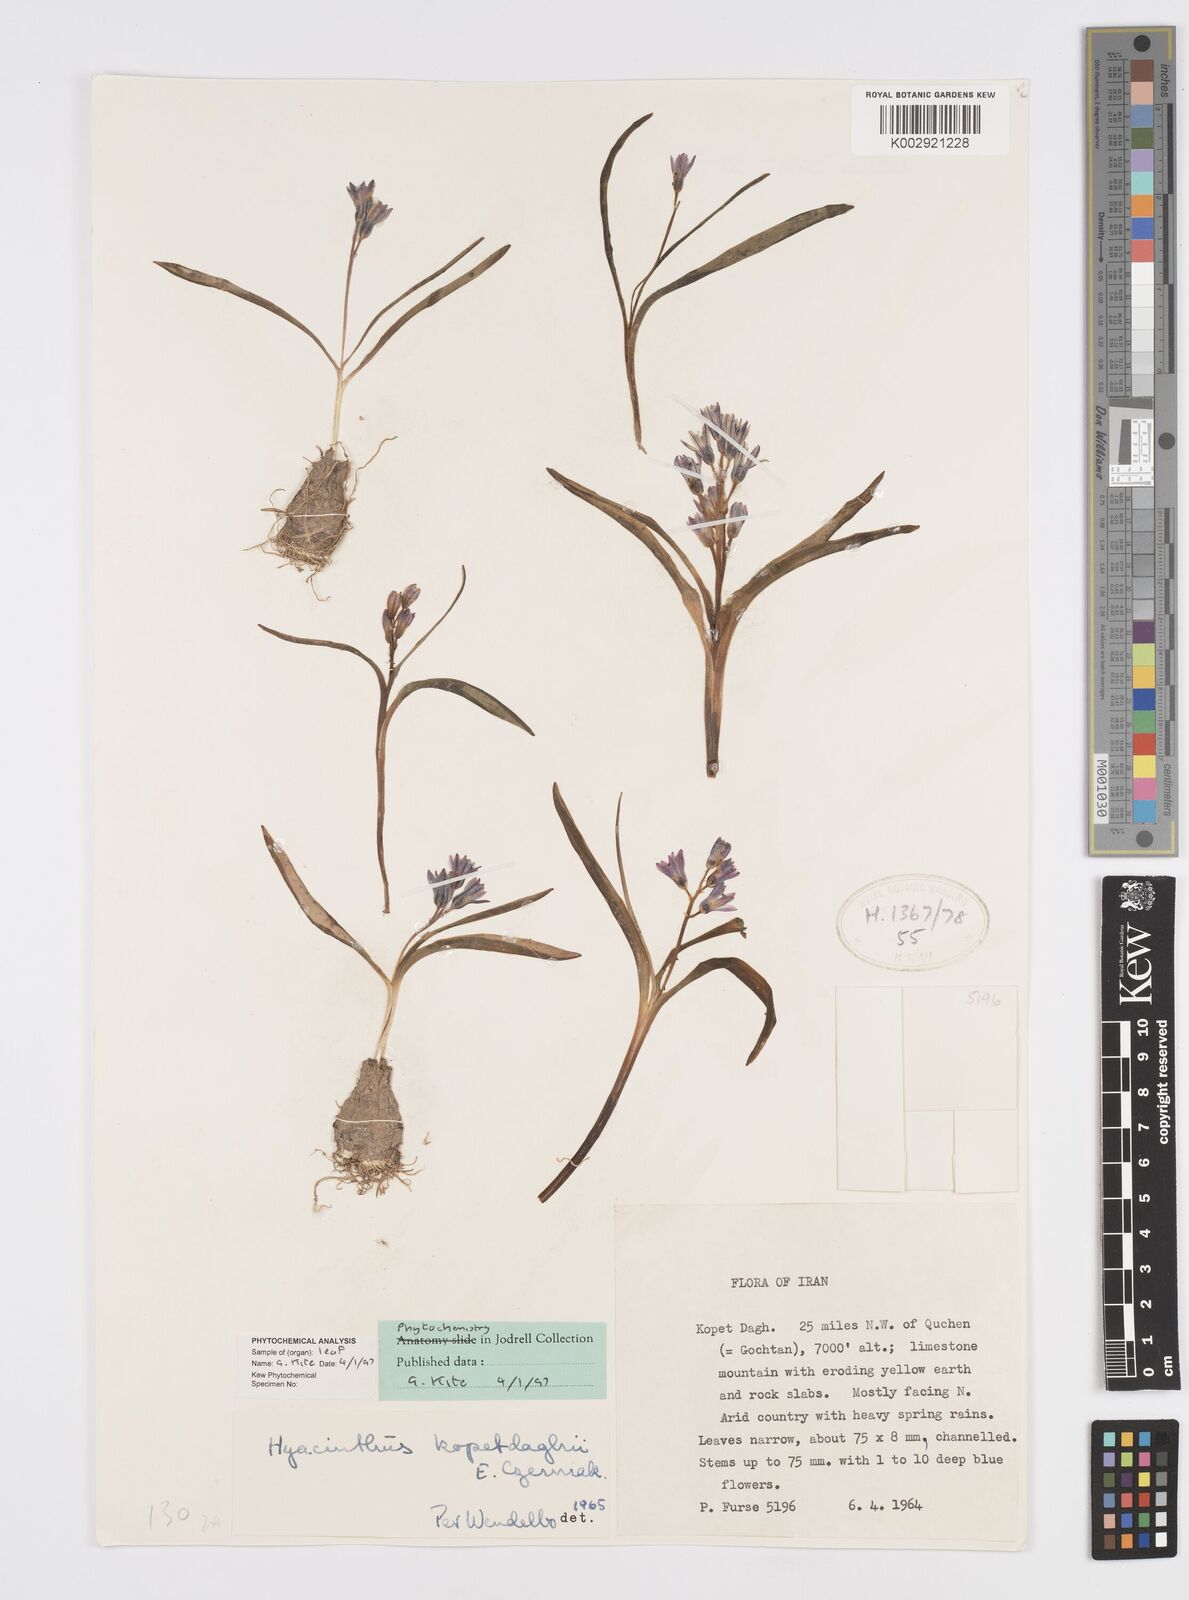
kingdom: Plantae
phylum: Tracheophyta
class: Liliopsida
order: Asparagales
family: Asparagaceae
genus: Hyacinthus
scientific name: Hyacinthus transcaspicus
